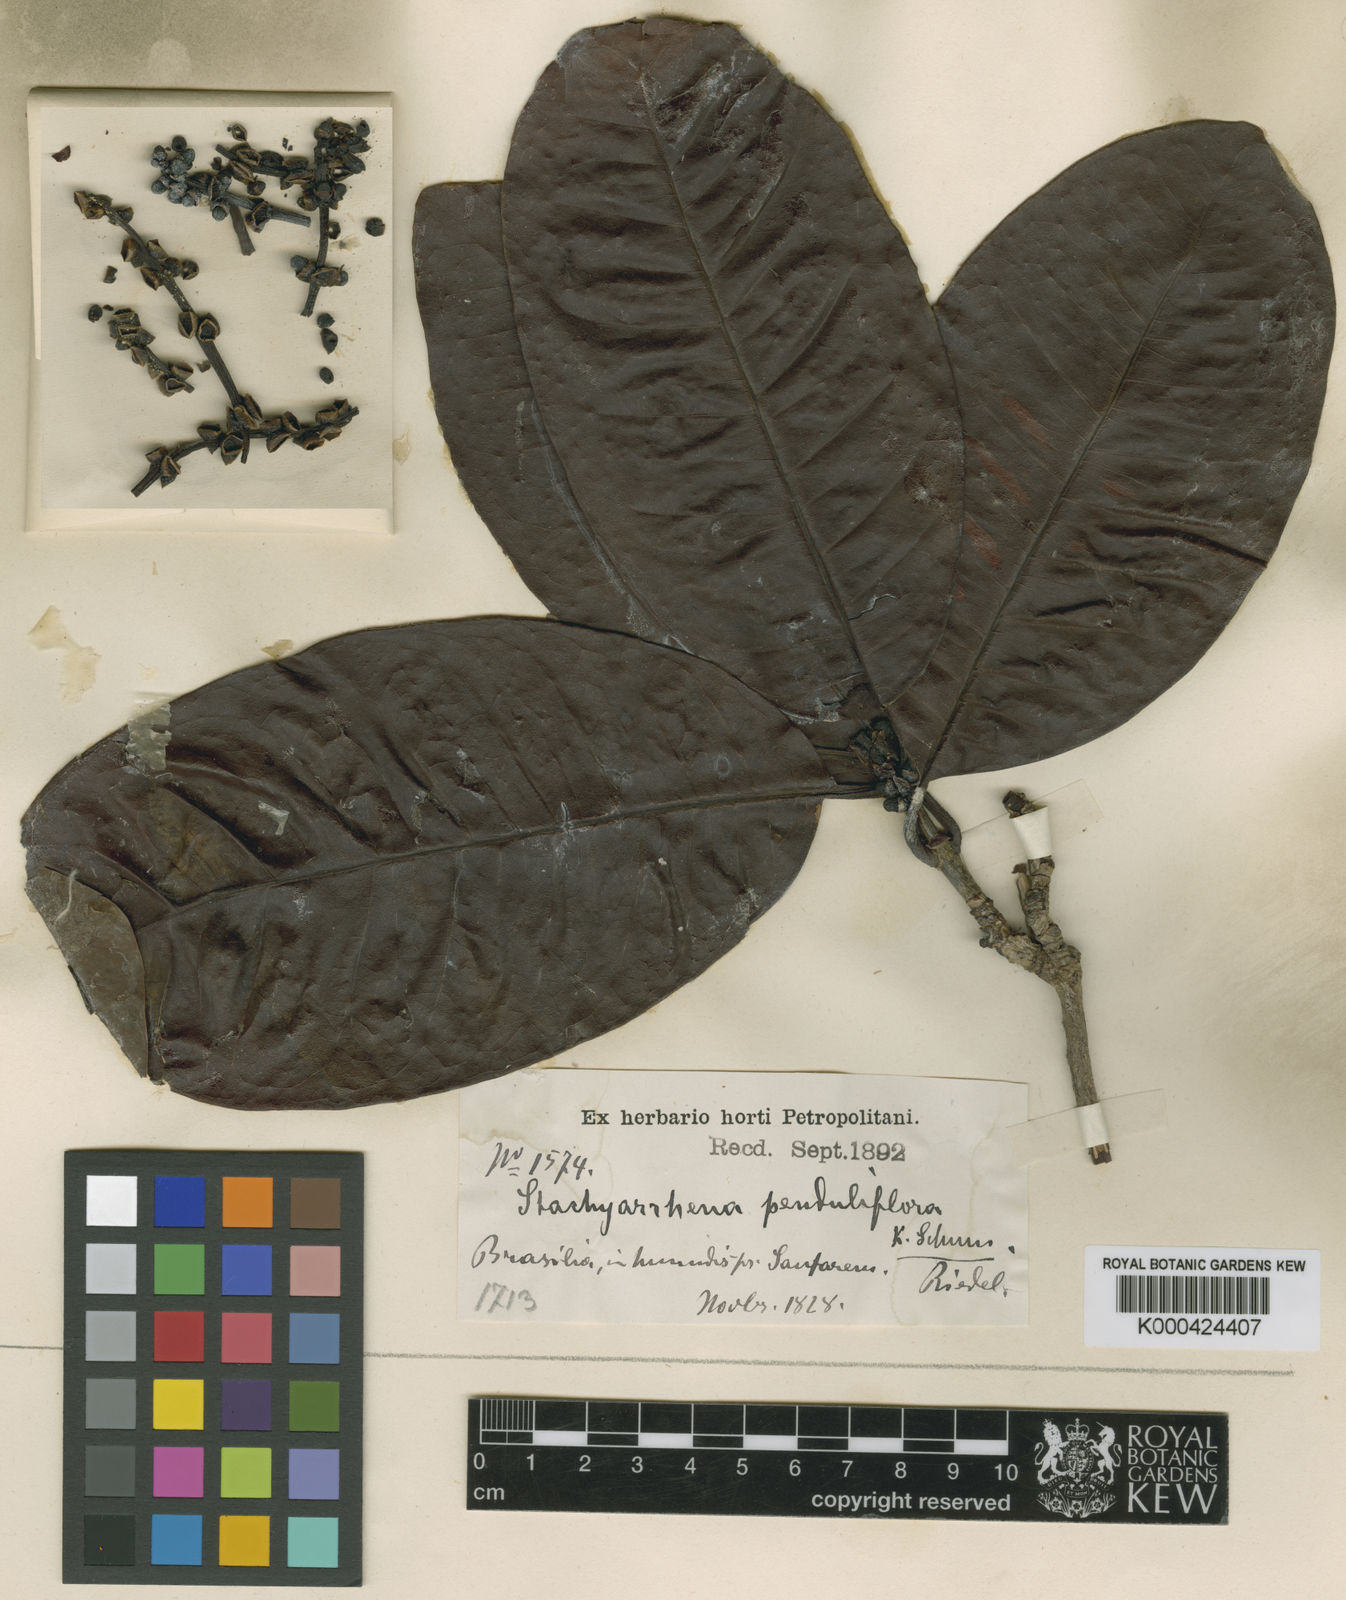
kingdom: Plantae
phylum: Tracheophyta
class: Magnoliopsida
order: Gentianales
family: Rubiaceae
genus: Stachyarrhena
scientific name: Stachyarrhena penduliflora
